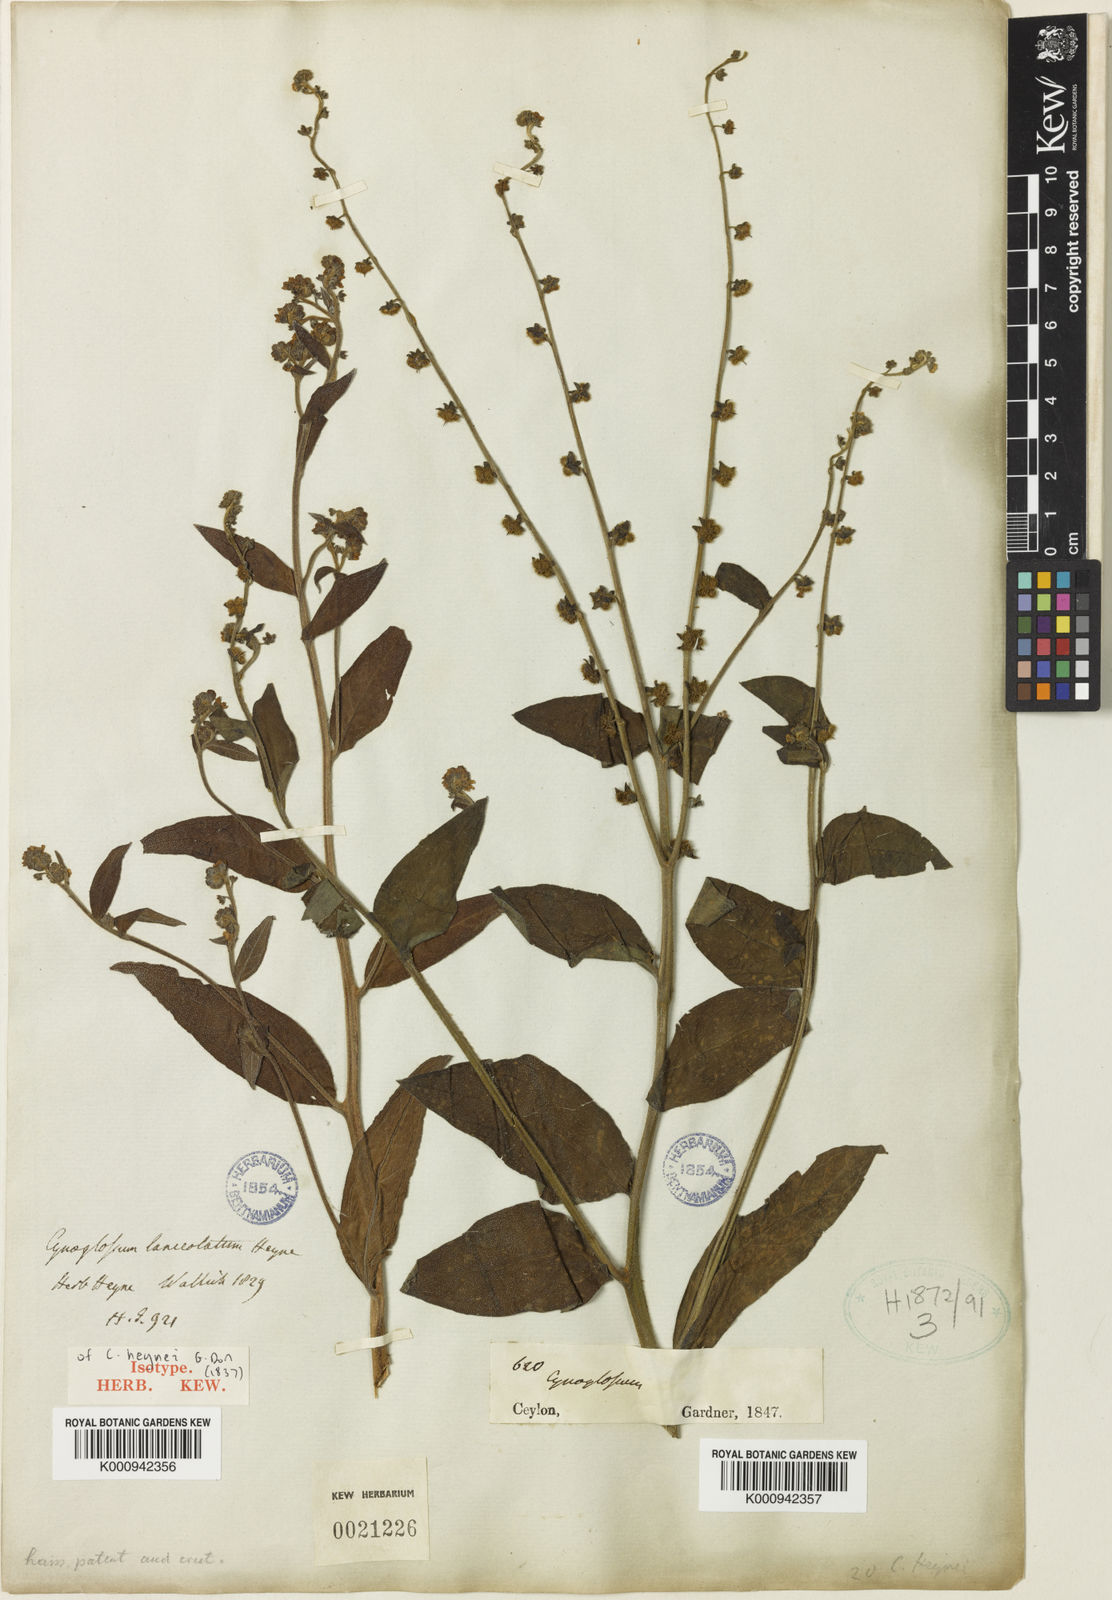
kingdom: Plantae
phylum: Tracheophyta
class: Magnoliopsida
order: Boraginales
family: Boraginaceae
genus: Cynoglossum
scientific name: Cynoglossum
